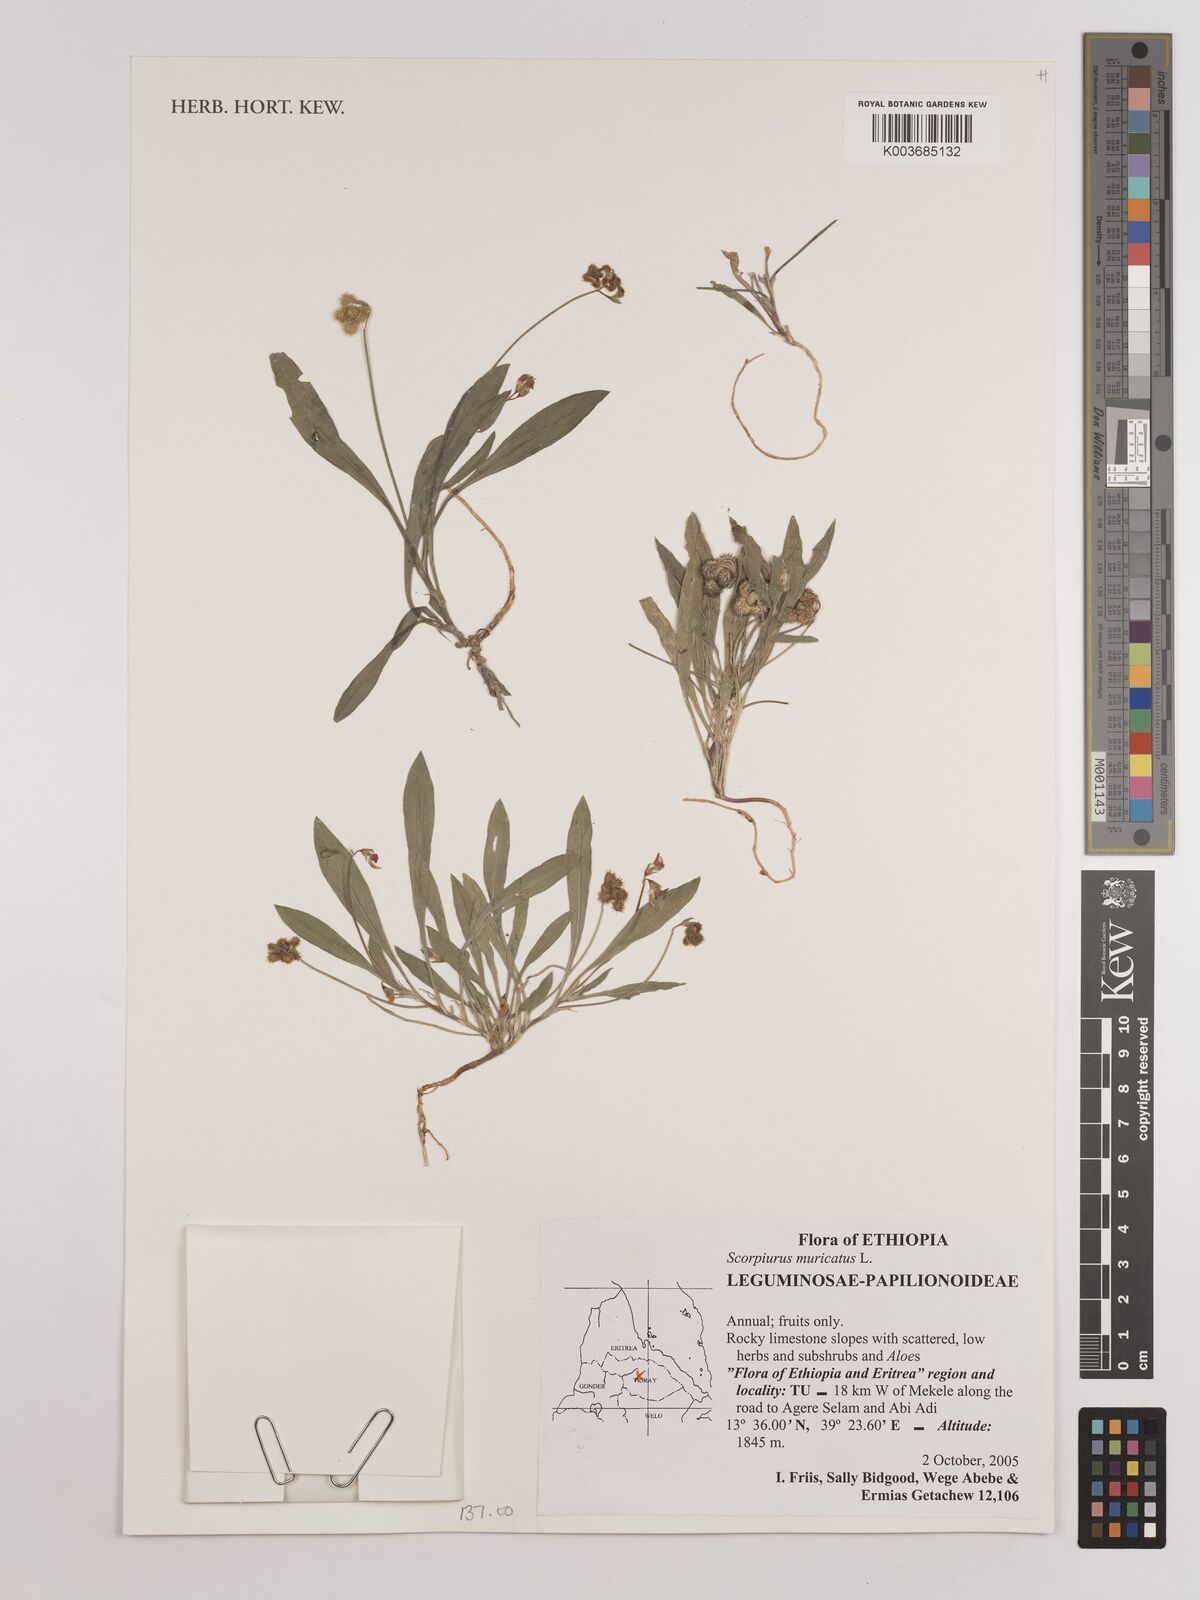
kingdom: Plantae
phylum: Tracheophyta
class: Magnoliopsida
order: Fabales
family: Fabaceae
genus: Scorpiurus
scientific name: Scorpiurus muricatus
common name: Caterpillar-plant
